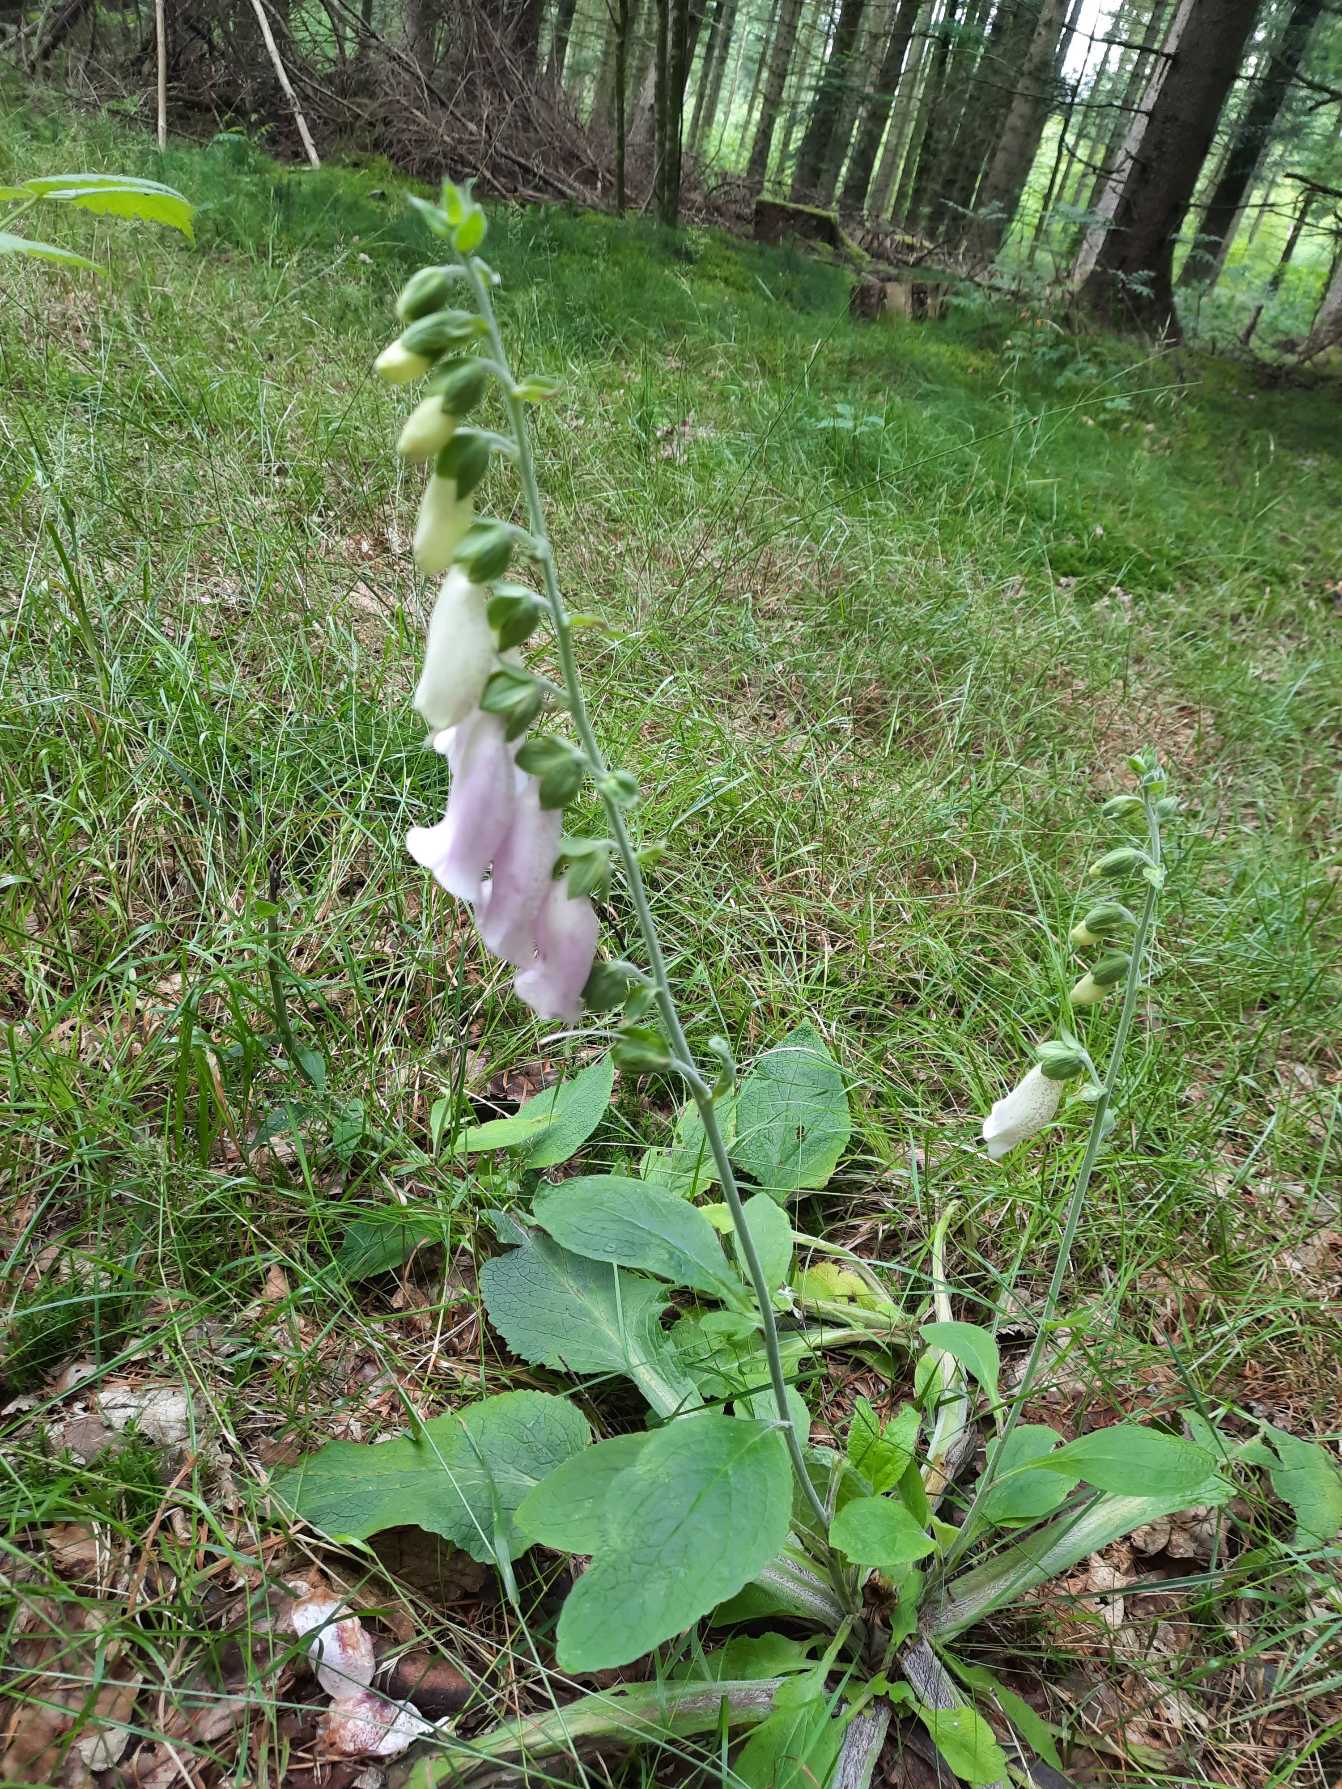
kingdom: Plantae
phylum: Tracheophyta
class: Magnoliopsida
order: Lamiales
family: Plantaginaceae
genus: Digitalis
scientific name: Digitalis
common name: Fingerbølslægten
